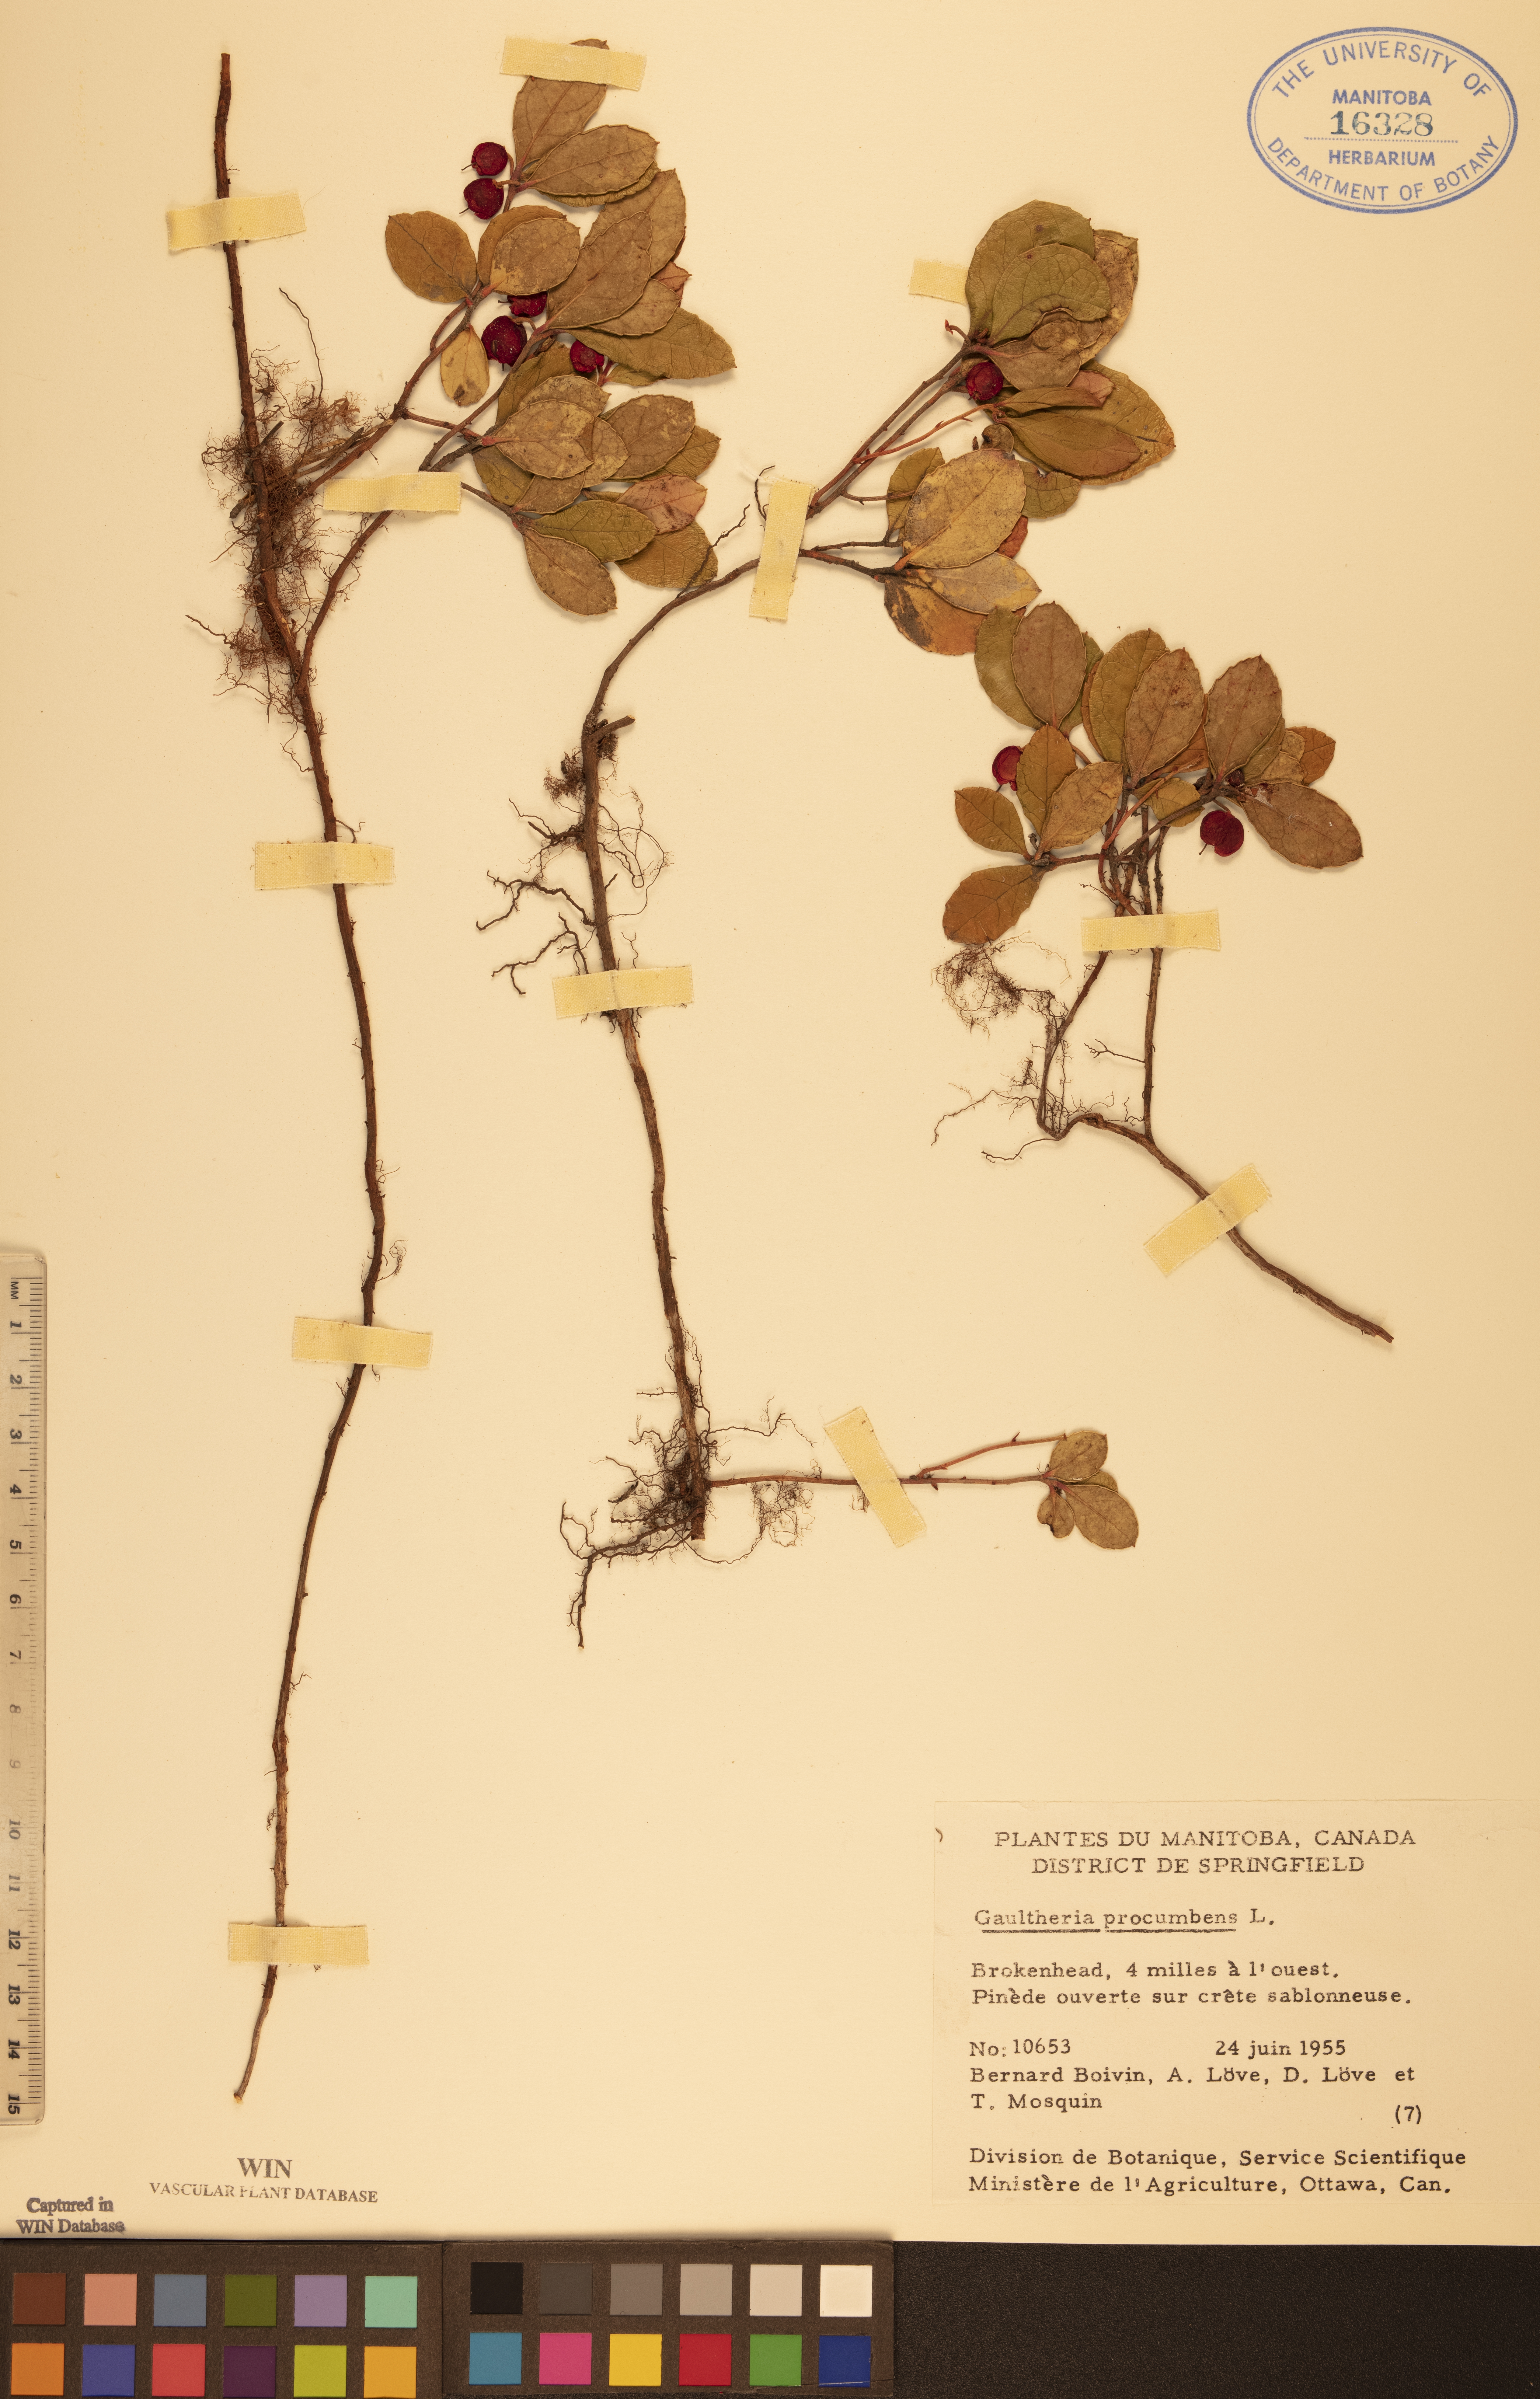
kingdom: Plantae
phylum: Tracheophyta
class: Magnoliopsida
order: Ericales
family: Ericaceae
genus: Gaultheria
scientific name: Gaultheria procumbens
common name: Checkerberry
